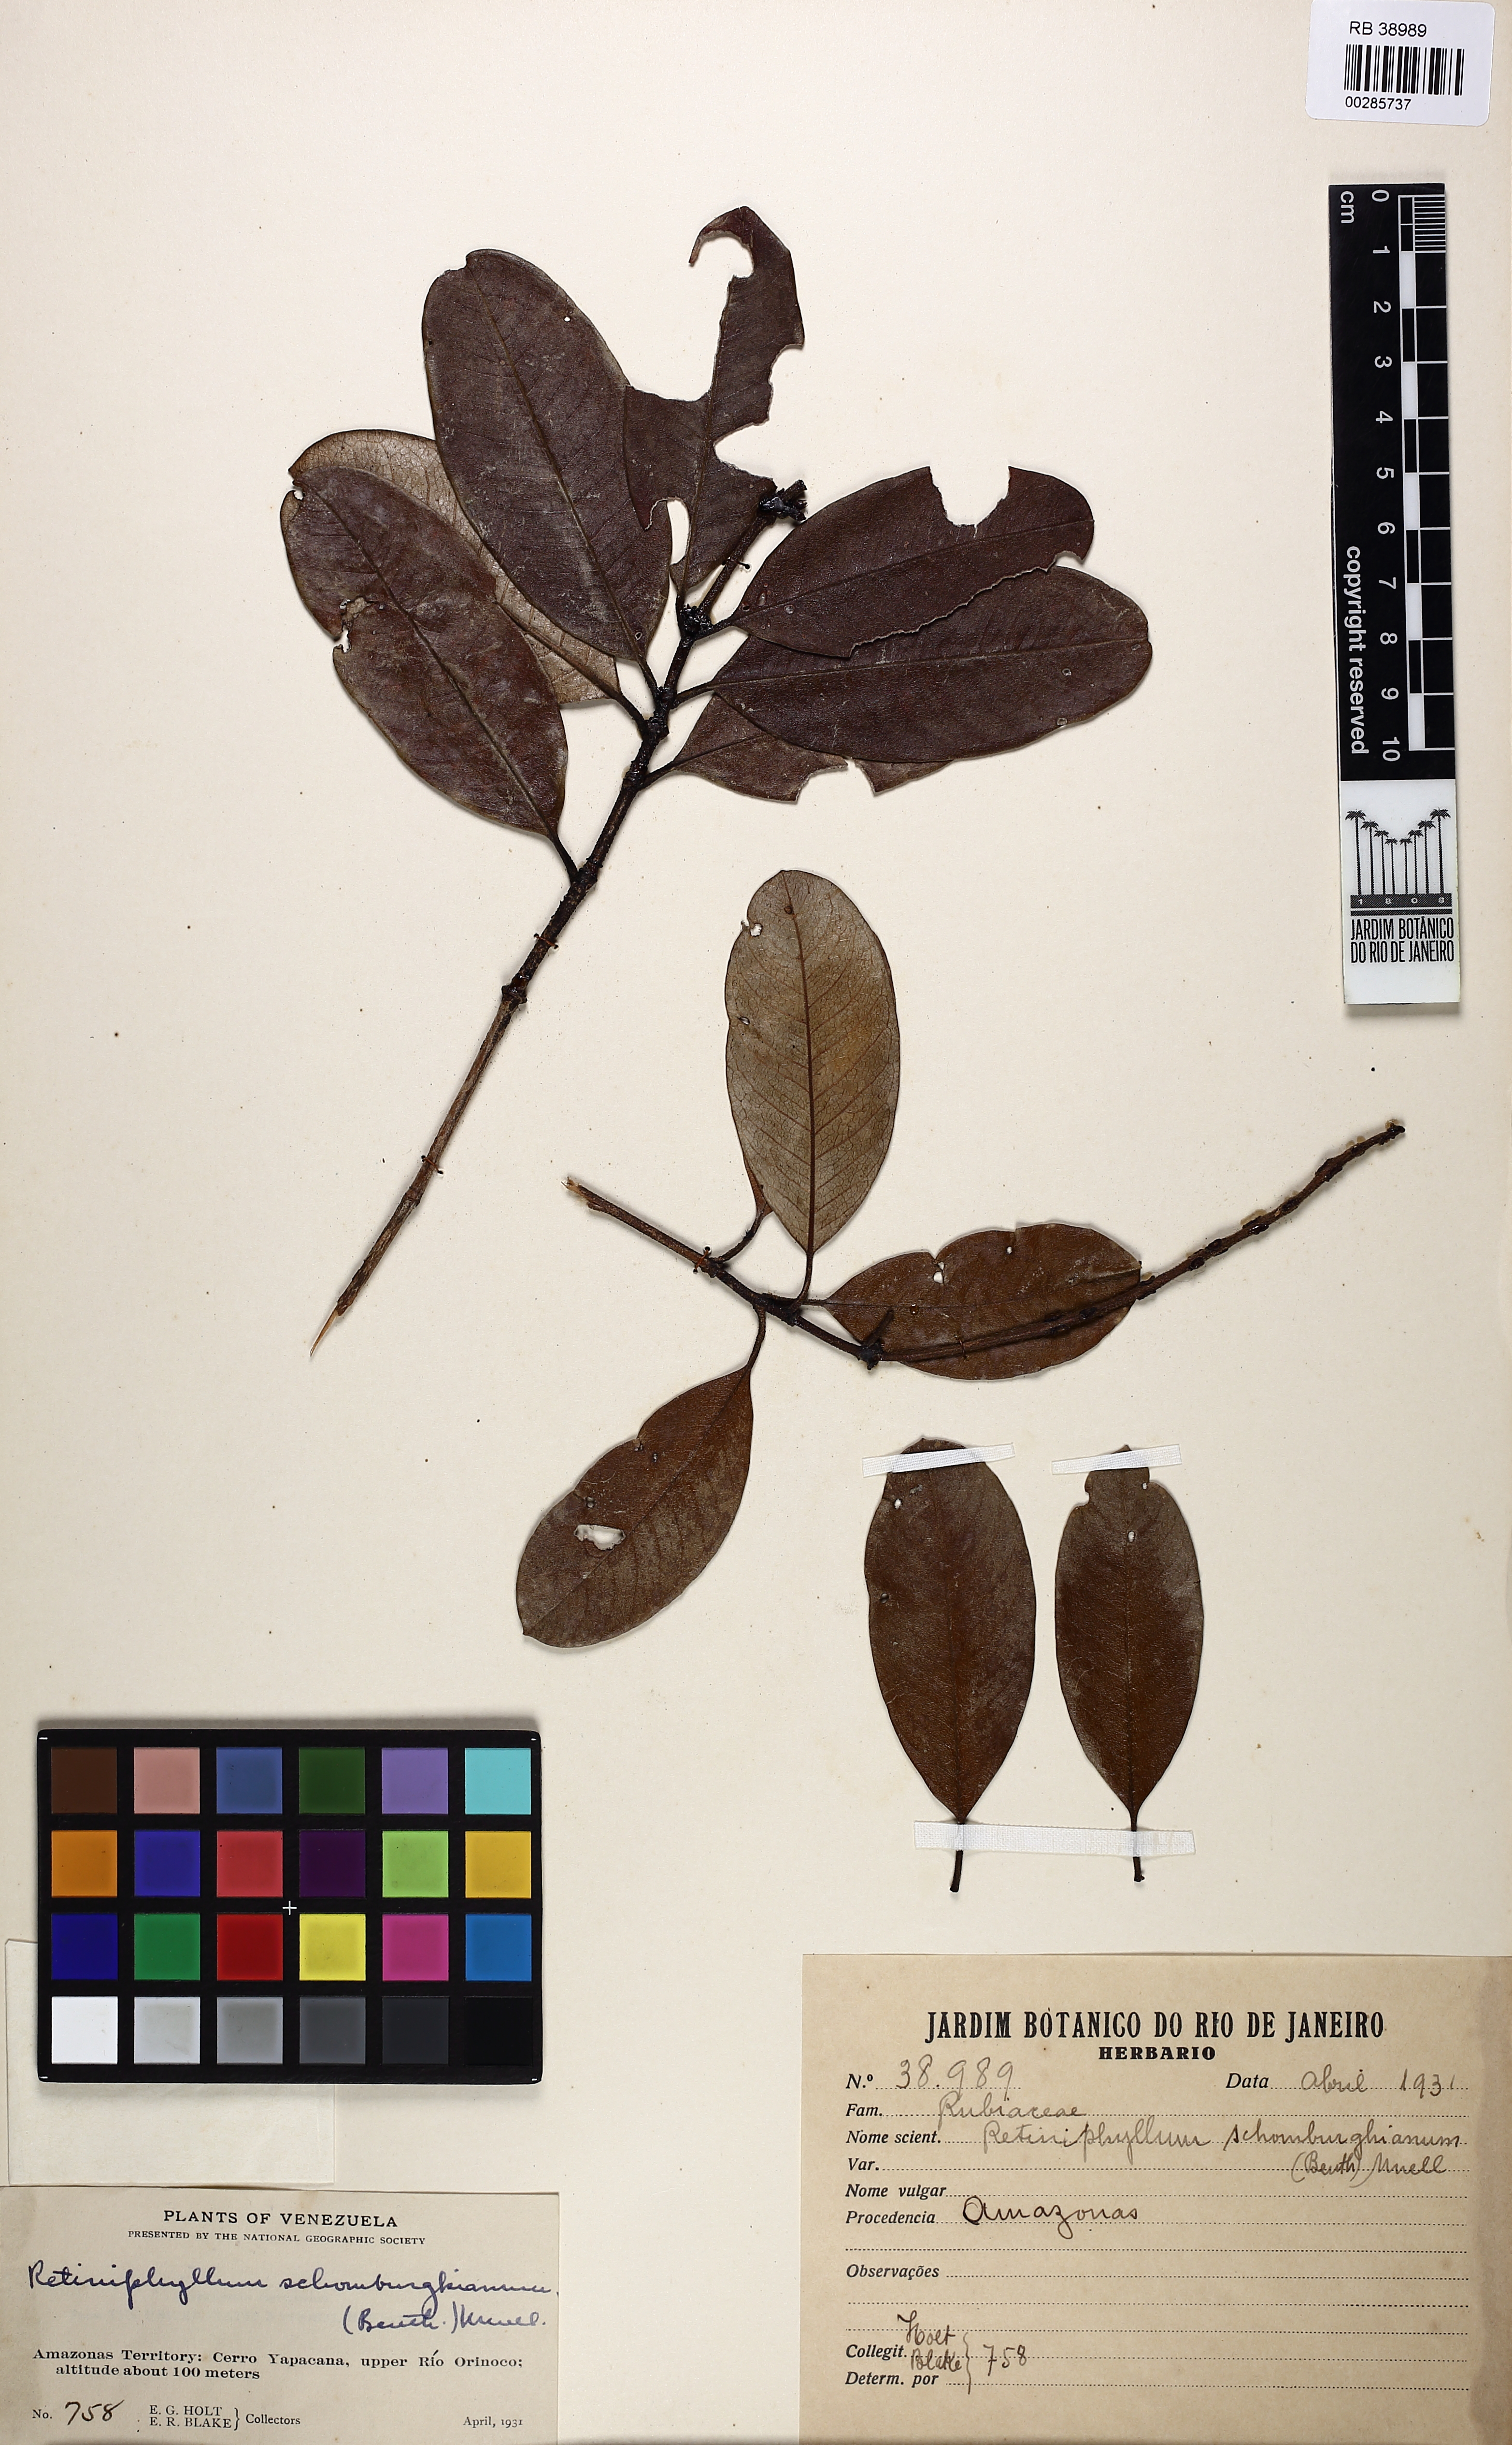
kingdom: Plantae
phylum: Tracheophyta
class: Magnoliopsida
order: Gentianales
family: Rubiaceae
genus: Retiniphyllum
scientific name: Retiniphyllum schomburgkii
